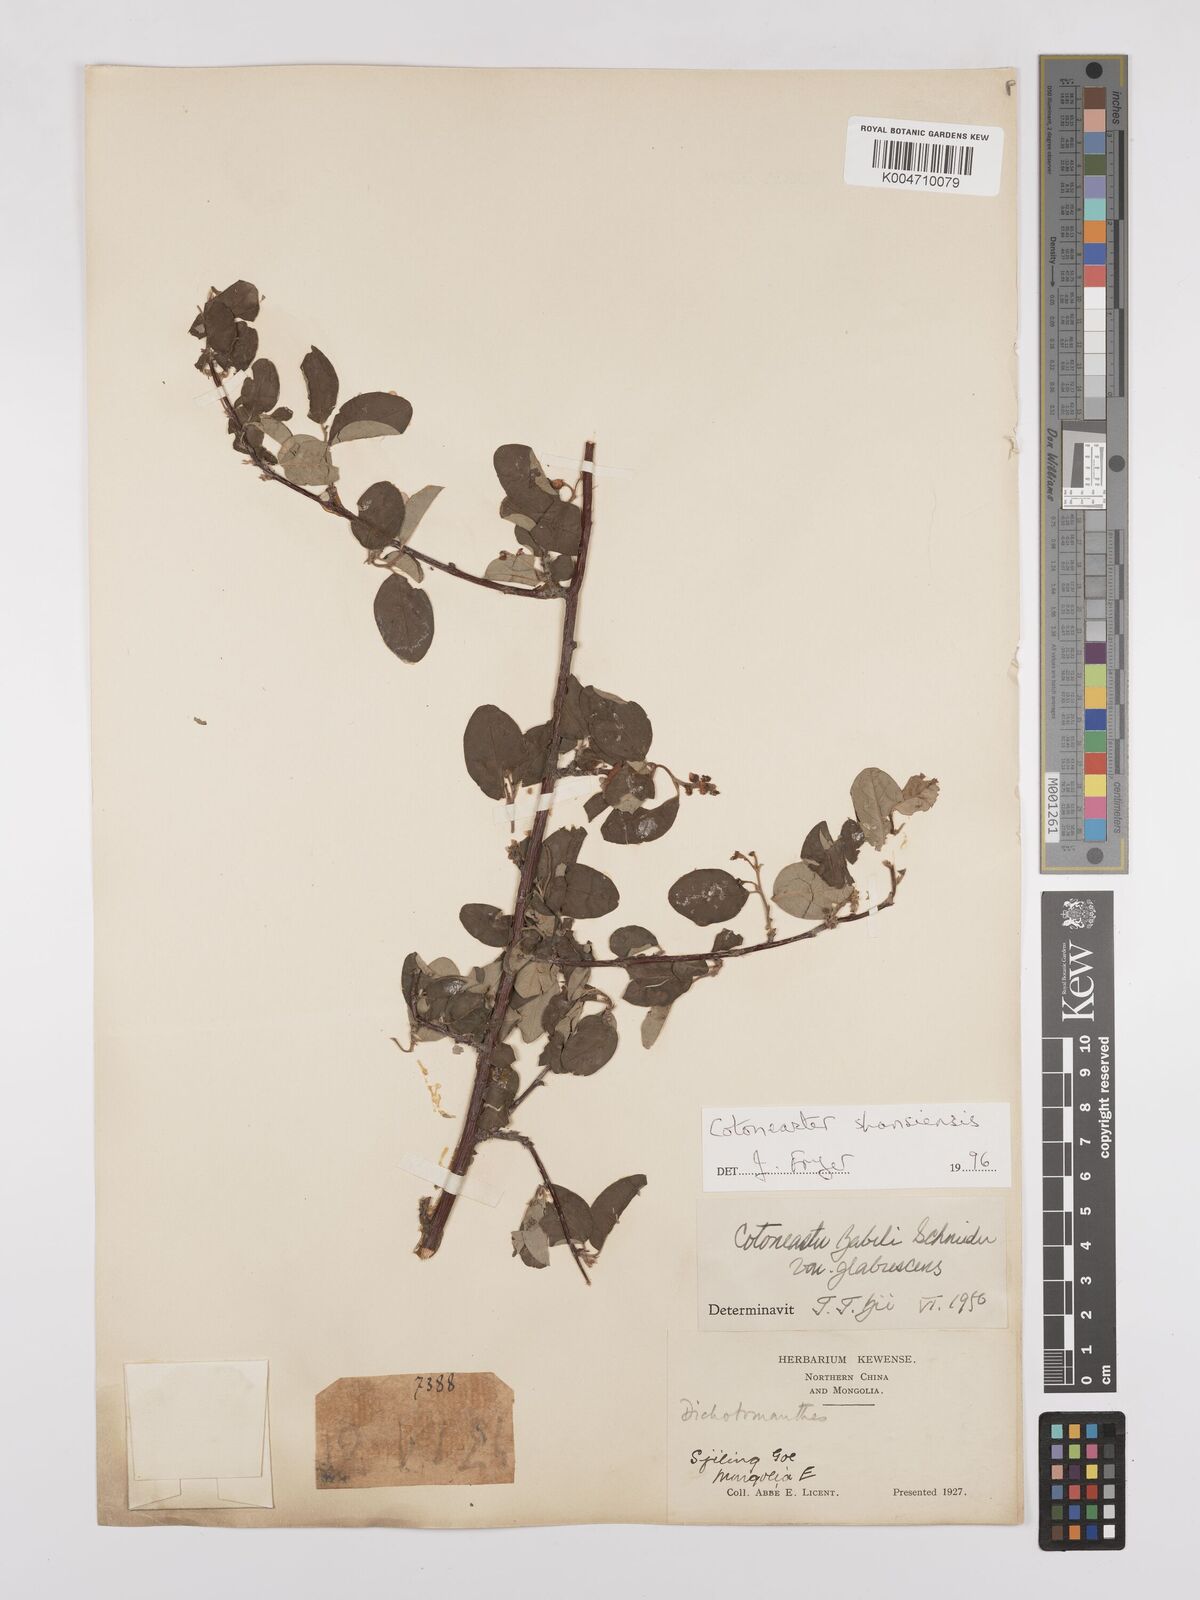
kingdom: Plantae
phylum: Tracheophyta
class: Magnoliopsida
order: Rosales
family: Rosaceae
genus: Cotoneaster
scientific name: Cotoneaster zabelii
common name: Cherryred cotoneaster
